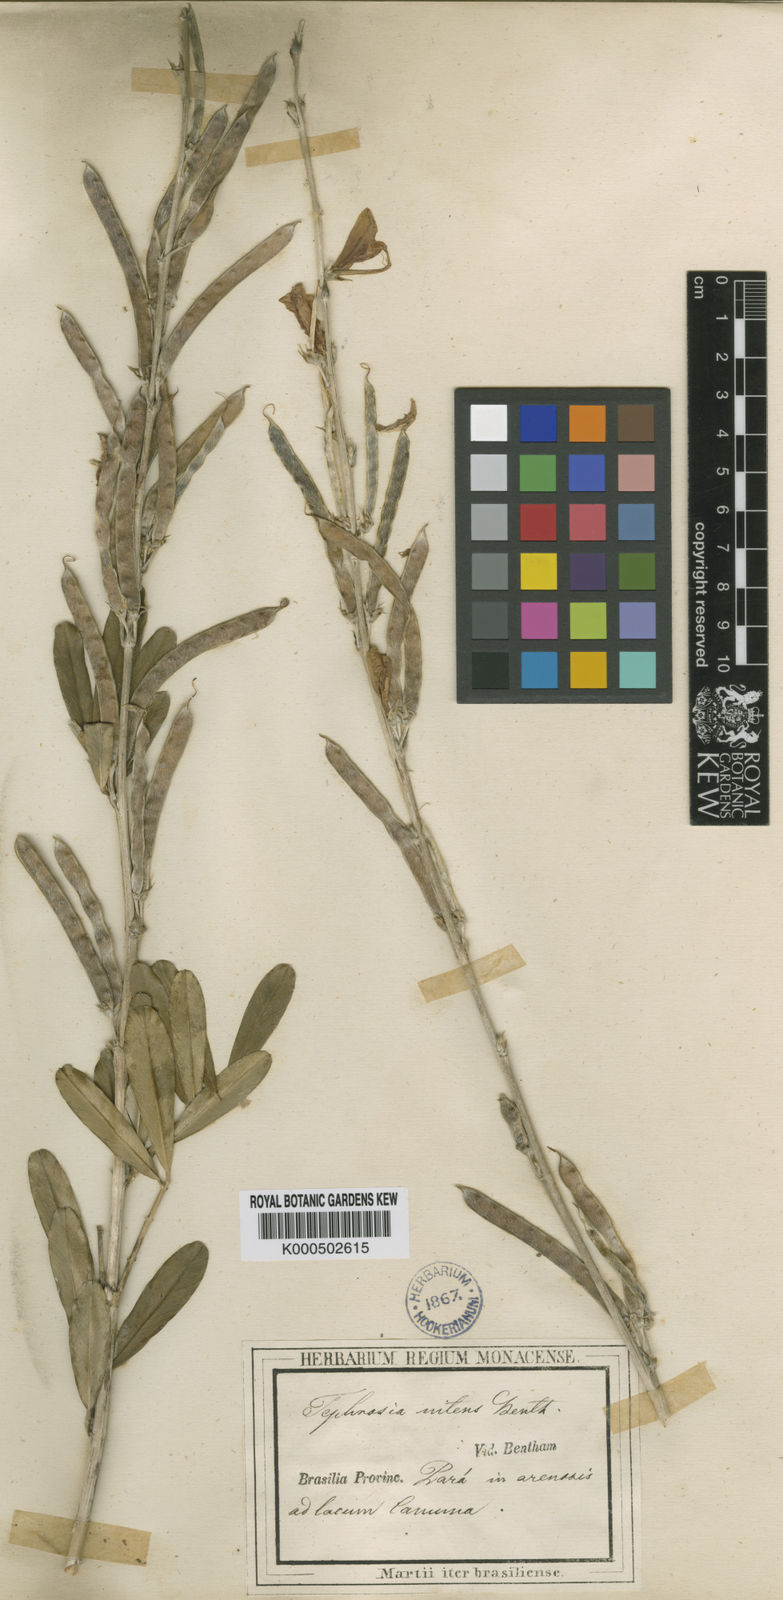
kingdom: Plantae
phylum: Tracheophyta
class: Magnoliopsida
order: Fabales
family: Fabaceae
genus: Tephrosia
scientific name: Tephrosia
